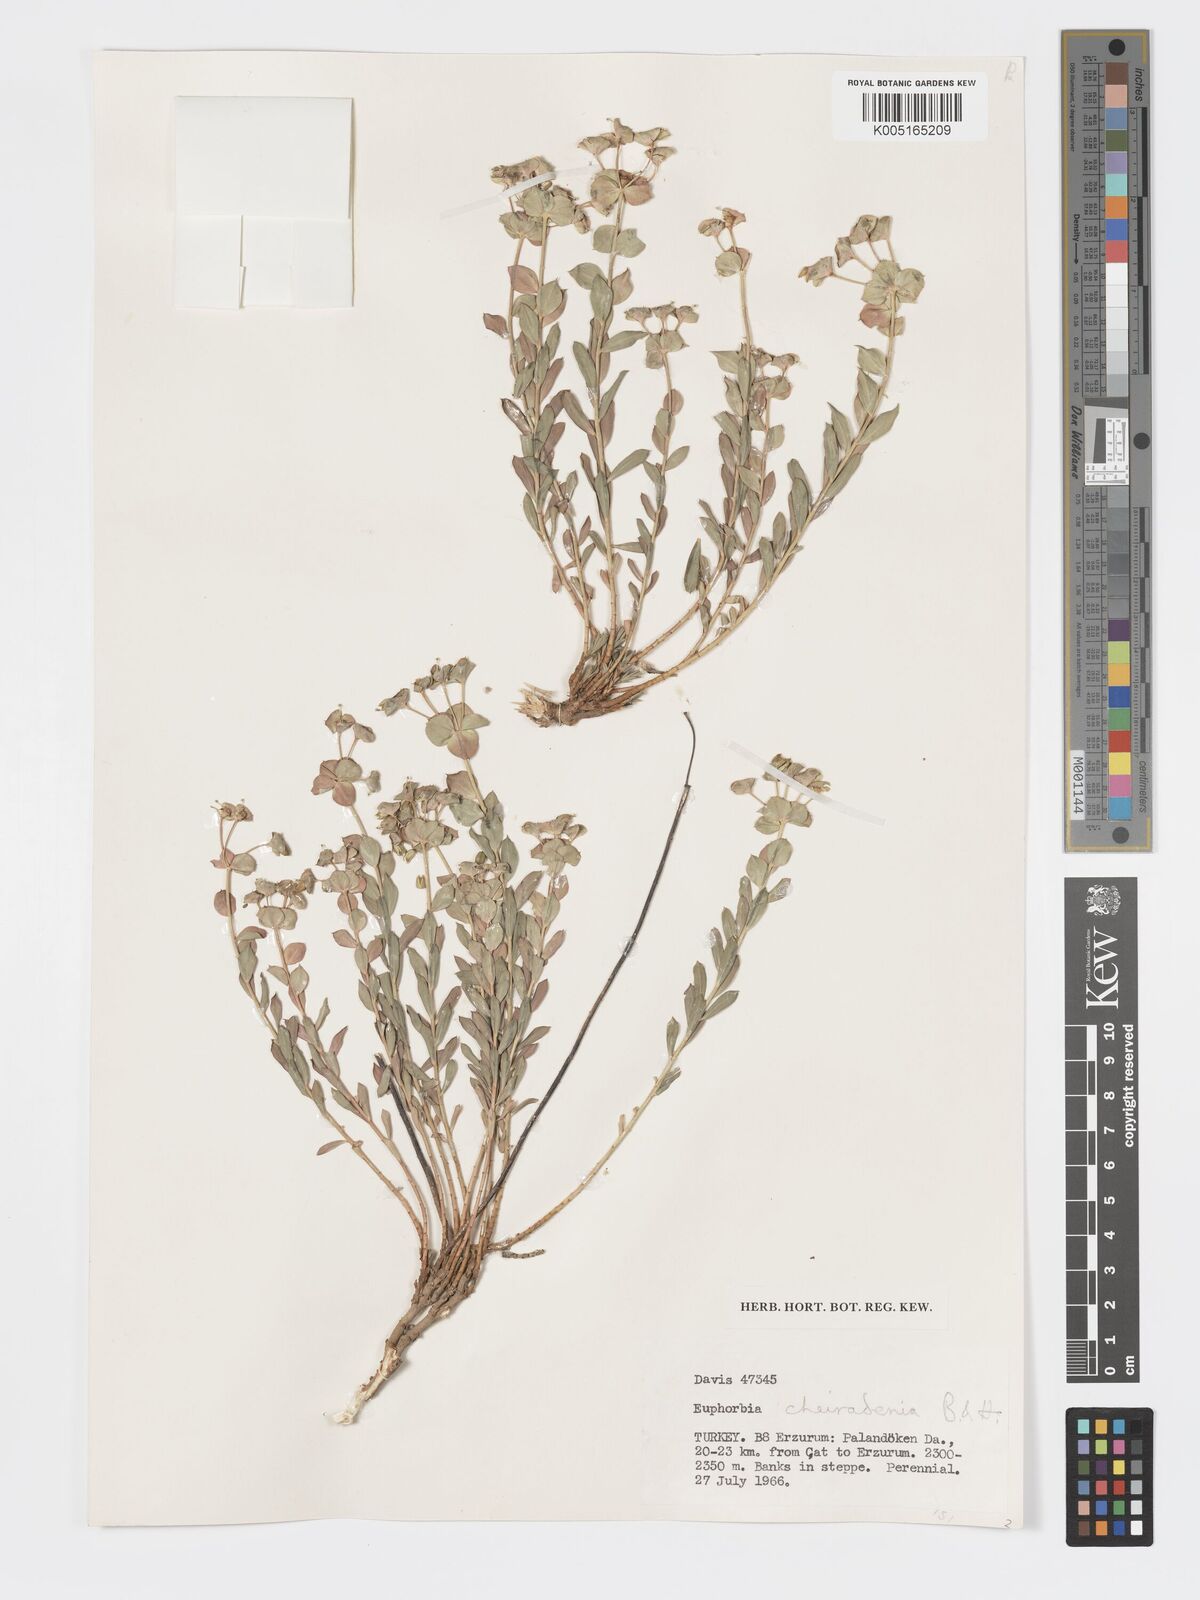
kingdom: Plantae
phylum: Tracheophyta
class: Magnoliopsida
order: Malpighiales
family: Euphorbiaceae
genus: Euphorbia
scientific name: Euphorbia cheiradenia
